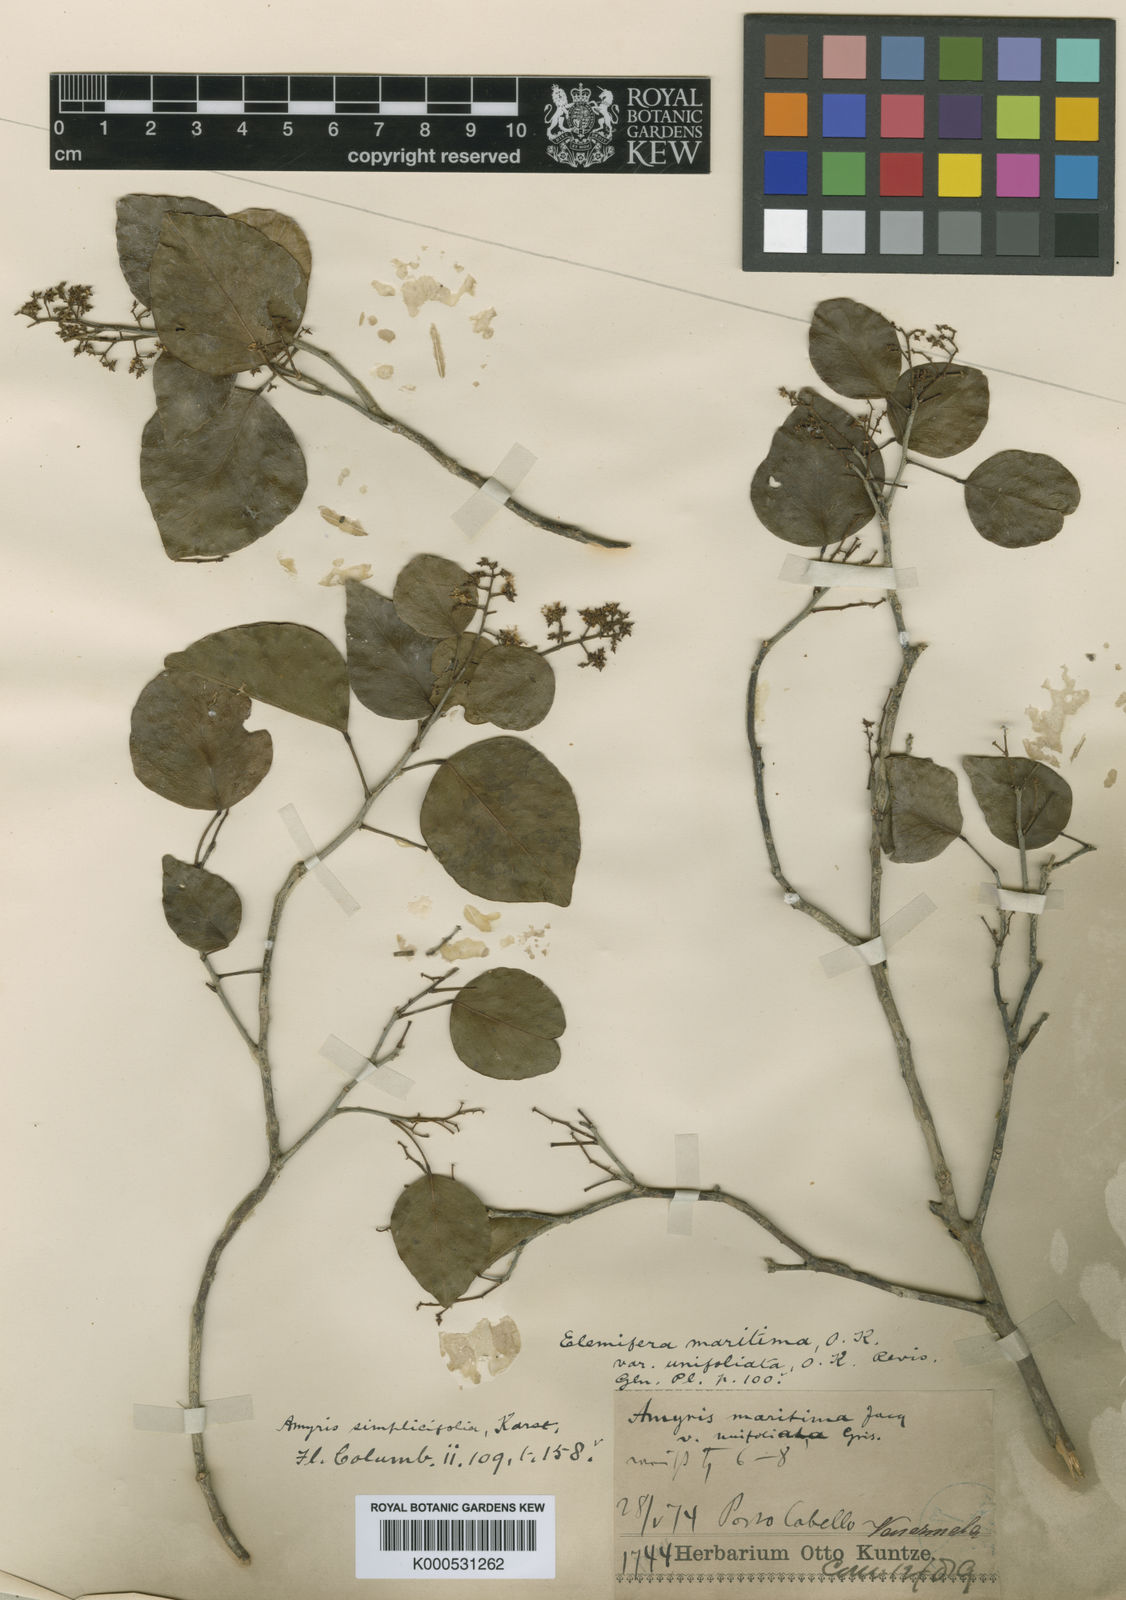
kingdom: Plantae
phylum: Tracheophyta
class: Magnoliopsida
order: Sapindales
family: Rutaceae
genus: Amyris
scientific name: Amyris ignea
